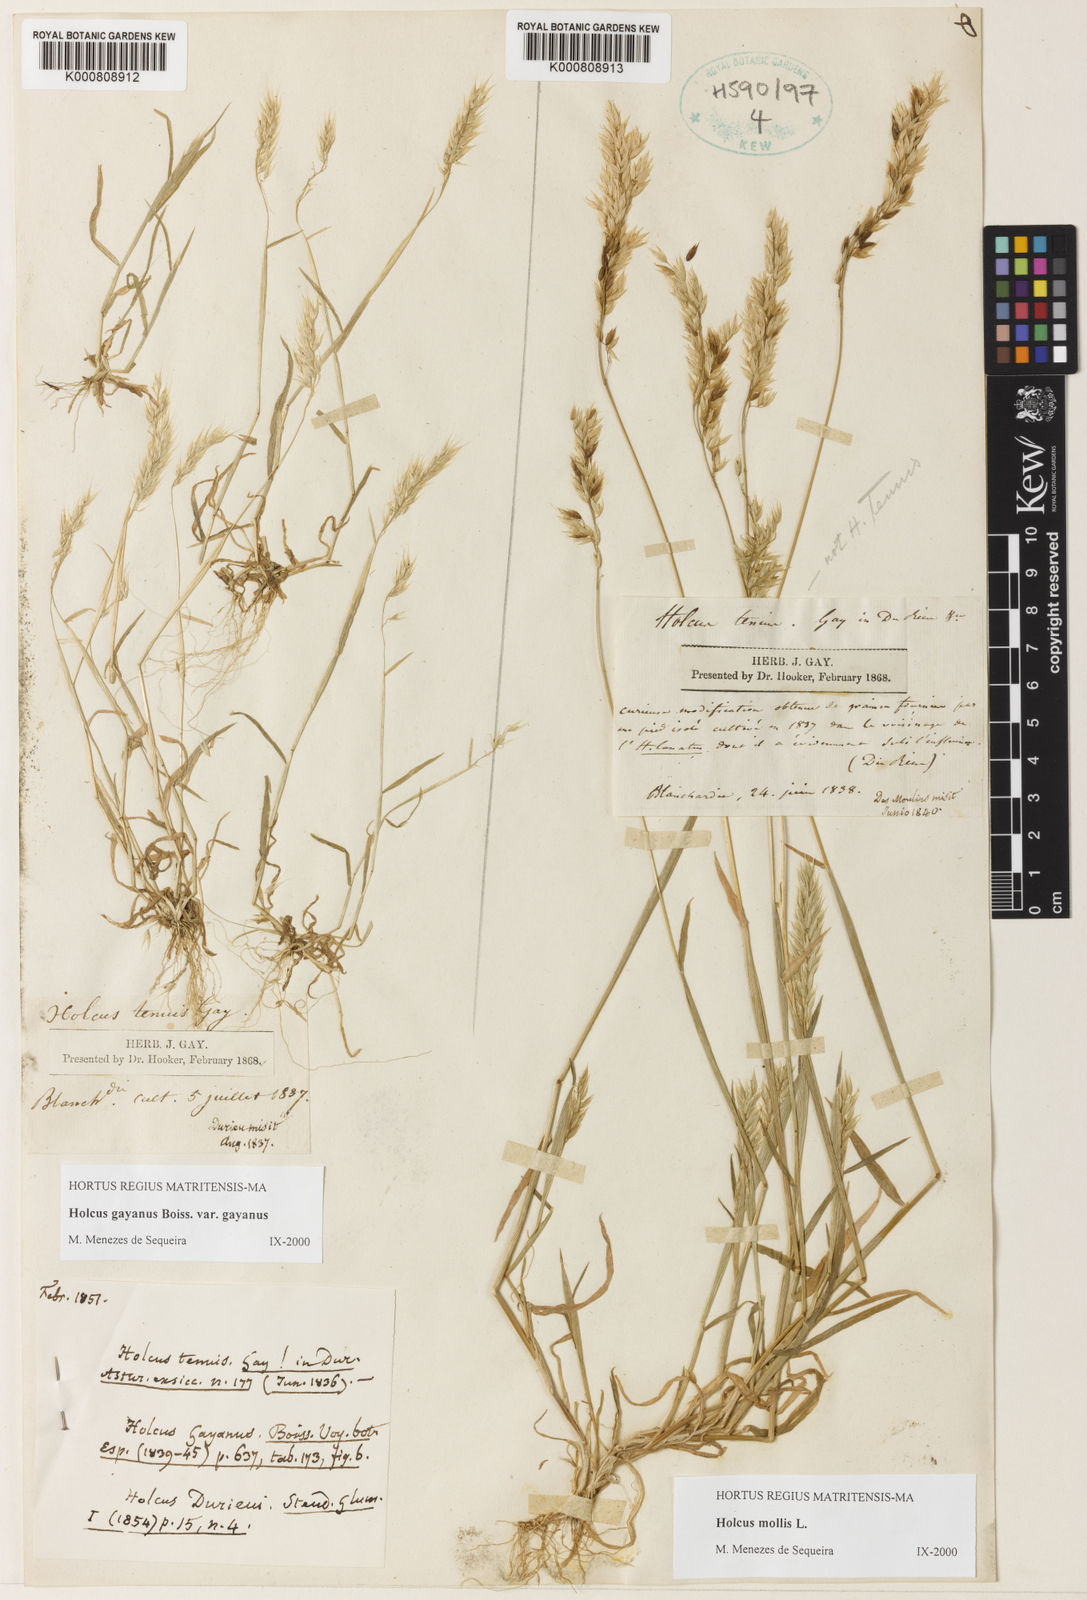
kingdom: Plantae
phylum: Tracheophyta
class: Liliopsida
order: Poales
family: Poaceae
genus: Holcus
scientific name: Holcus mollis
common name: Creeping velvetgrass
